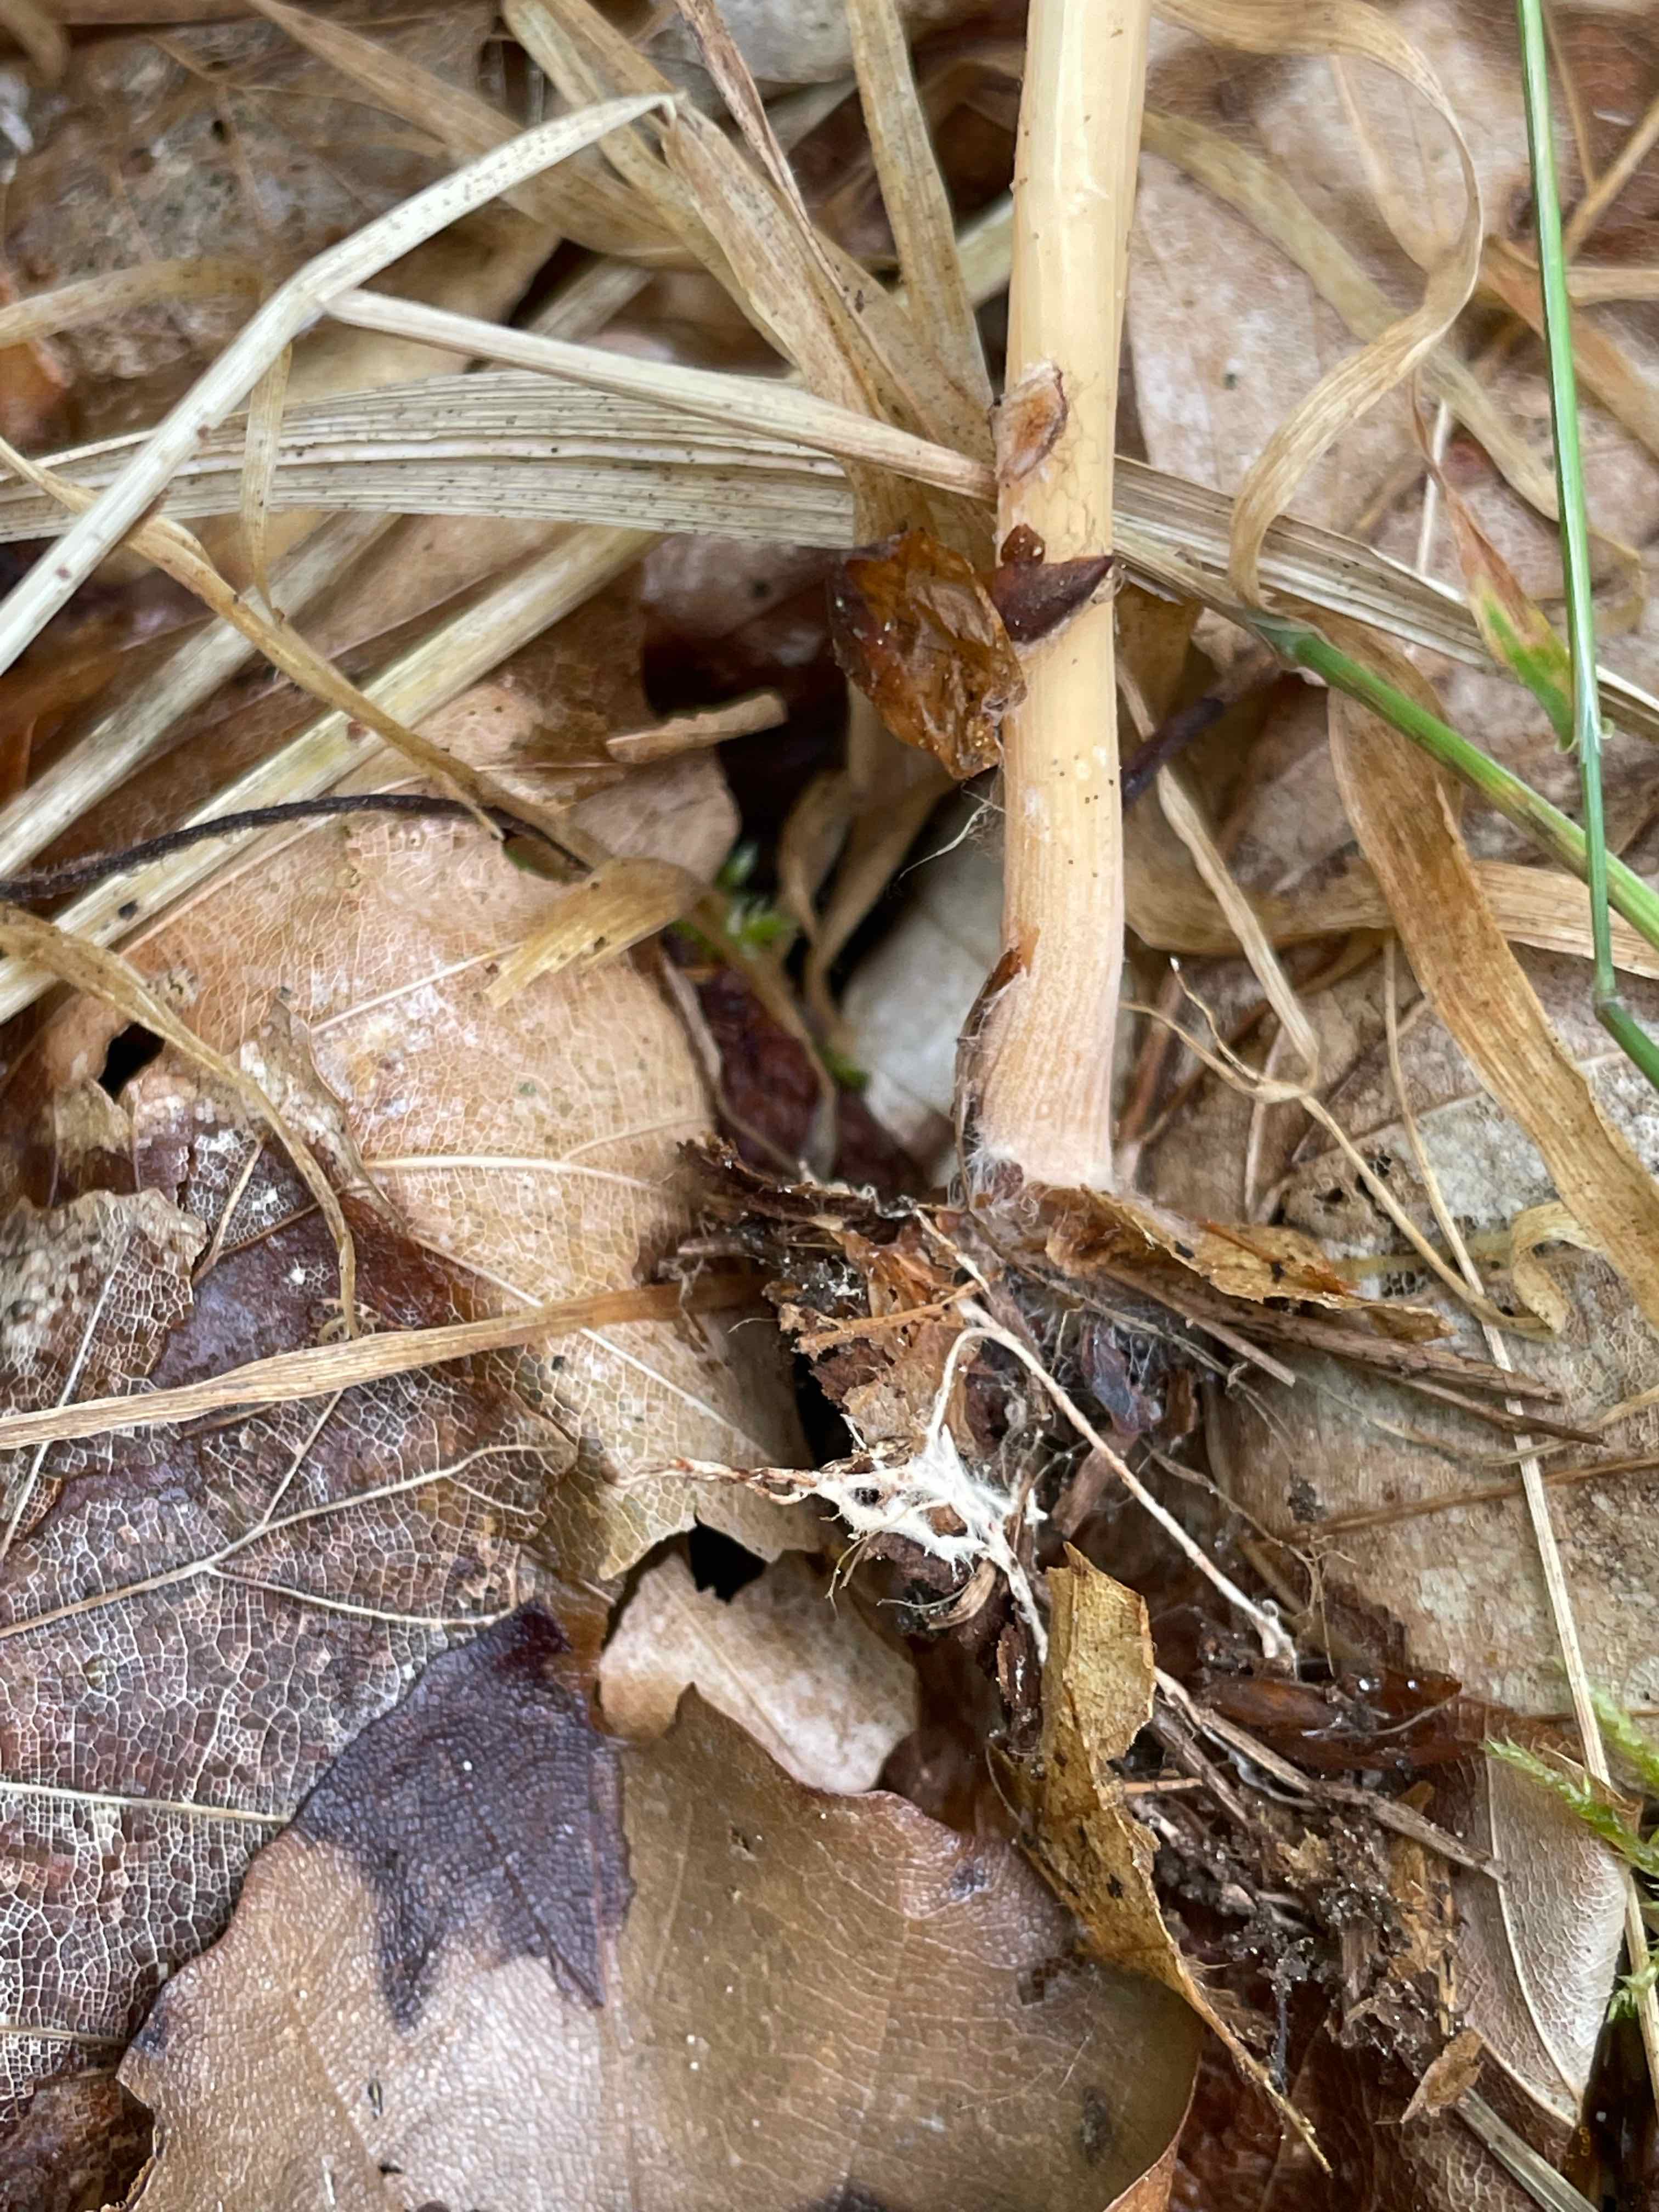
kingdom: Fungi
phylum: Basidiomycota
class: Agaricomycetes
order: Agaricales
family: Omphalotaceae
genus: Gymnopus
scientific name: Gymnopus aquosus
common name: bleg fladhat
